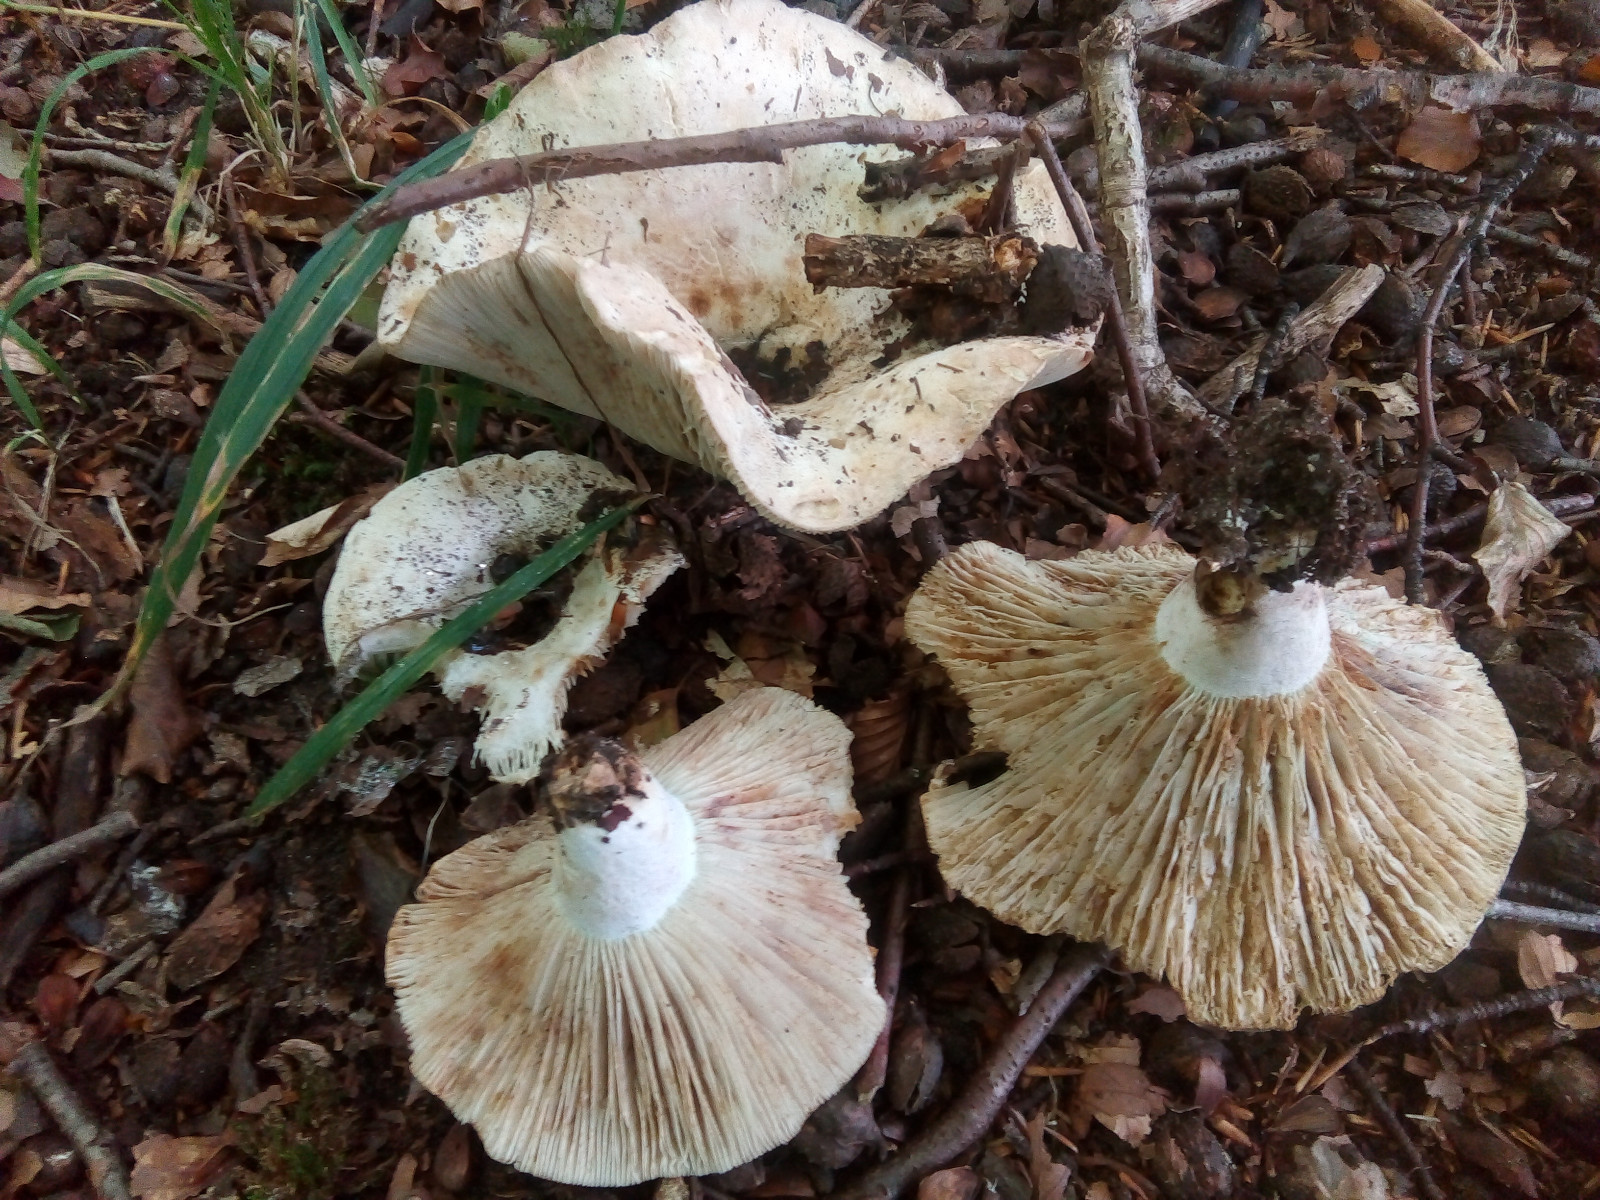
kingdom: Fungi
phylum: Basidiomycota
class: Agaricomycetes
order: Russulales
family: Russulaceae
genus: Russula
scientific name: Russula chloroides
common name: grønhalset tragt-skørhat
